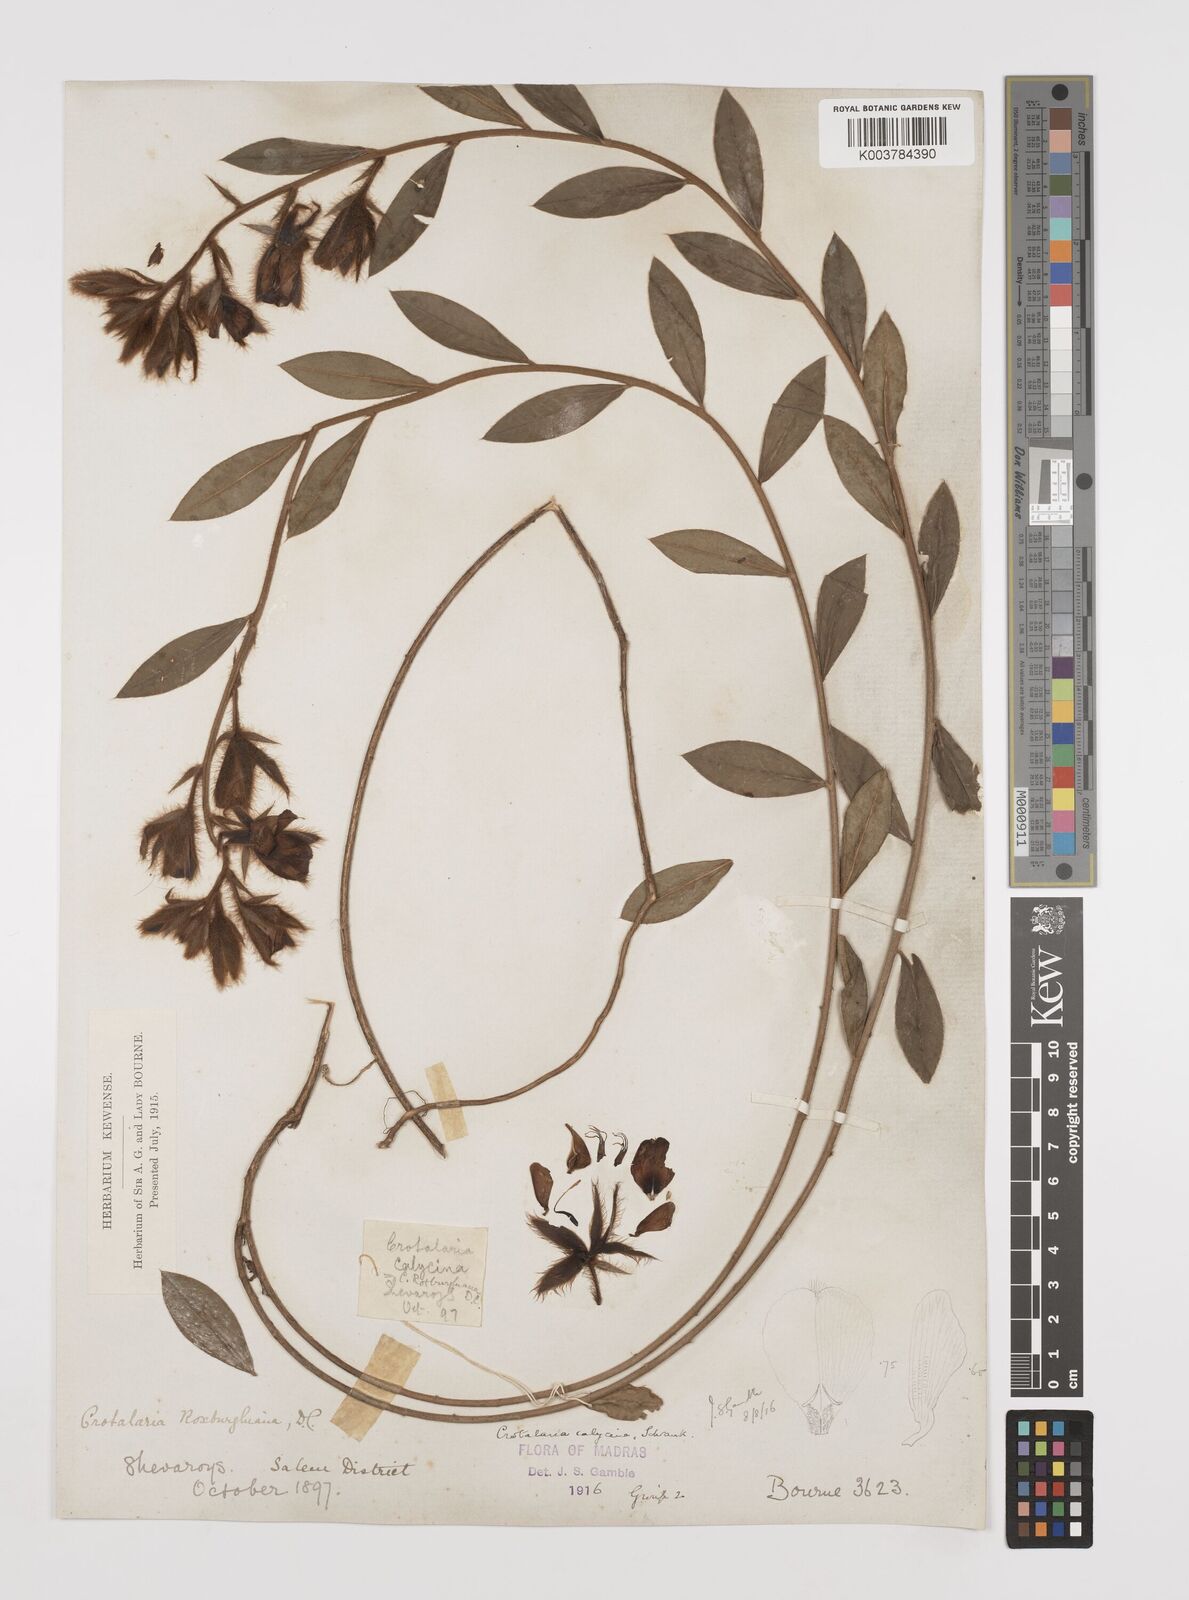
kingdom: Plantae
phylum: Tracheophyta
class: Magnoliopsida
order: Fabales
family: Fabaceae
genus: Crotalaria
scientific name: Crotalaria calycina
